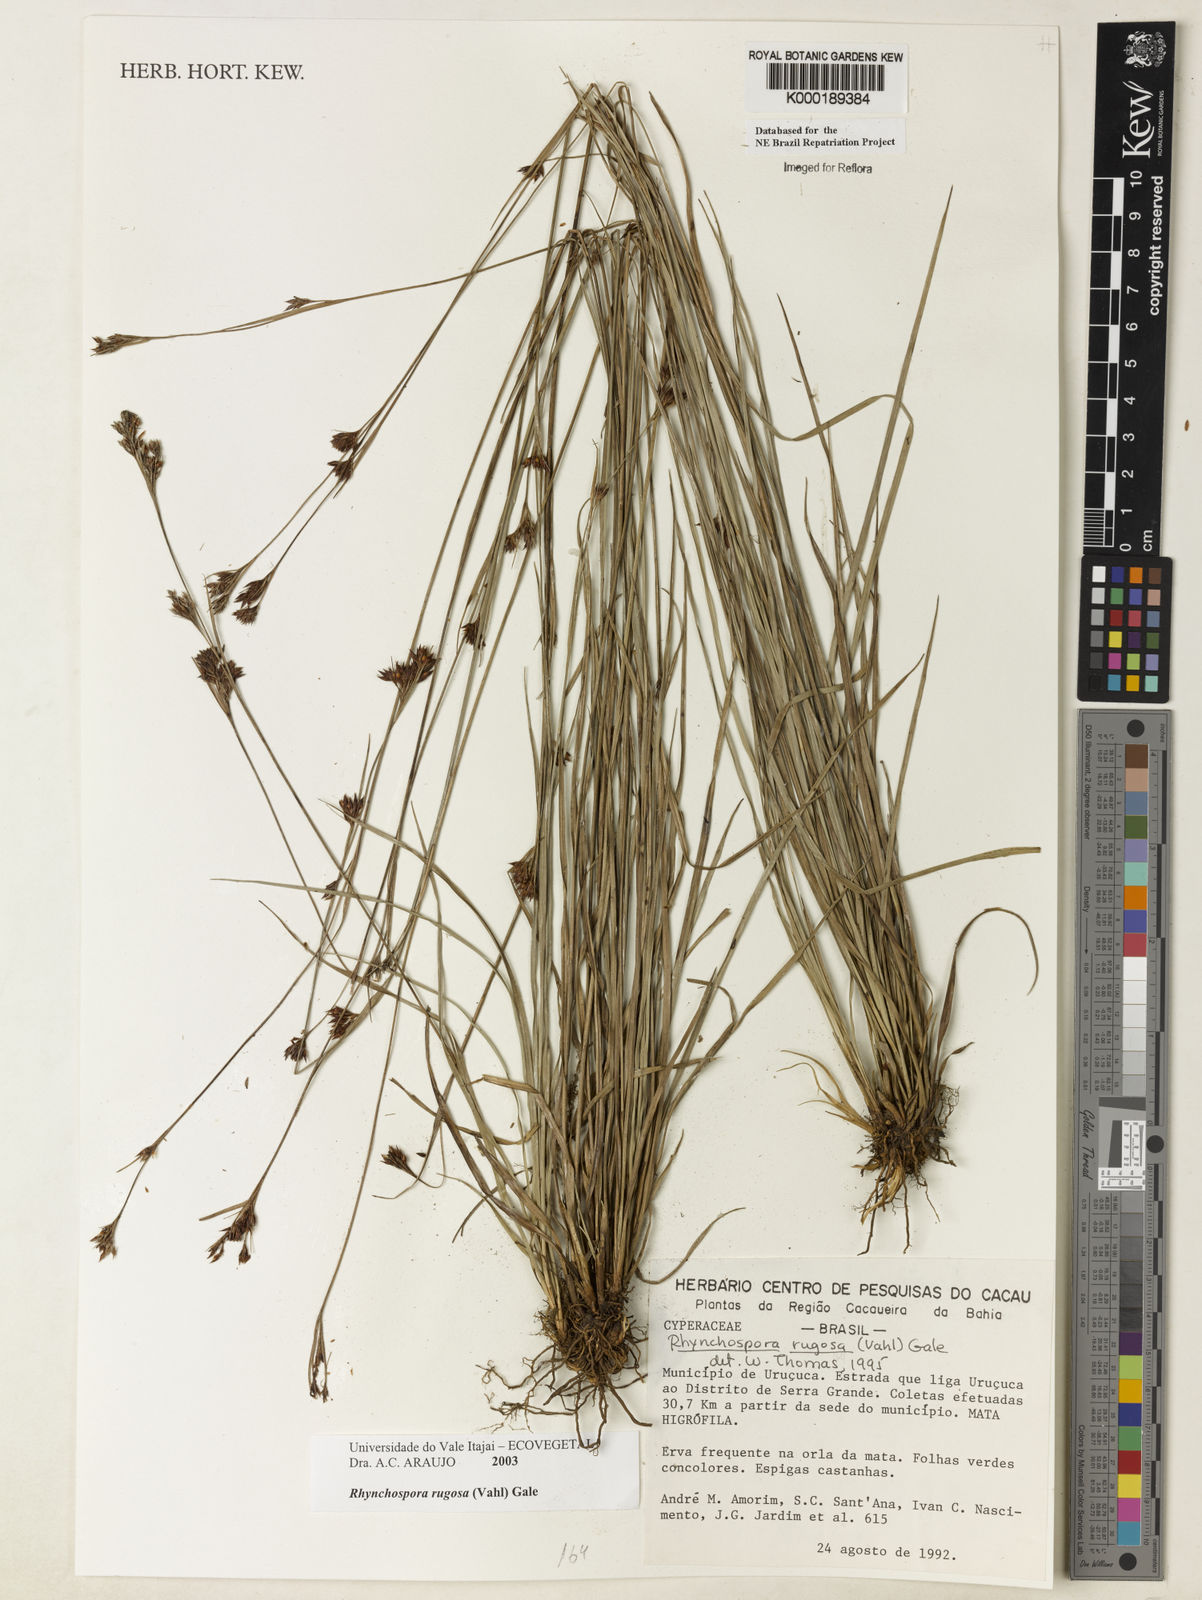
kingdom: Plantae
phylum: Tracheophyta
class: Liliopsida
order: Poales
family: Cyperaceae
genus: Rhynchospora
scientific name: Rhynchospora rugosa
